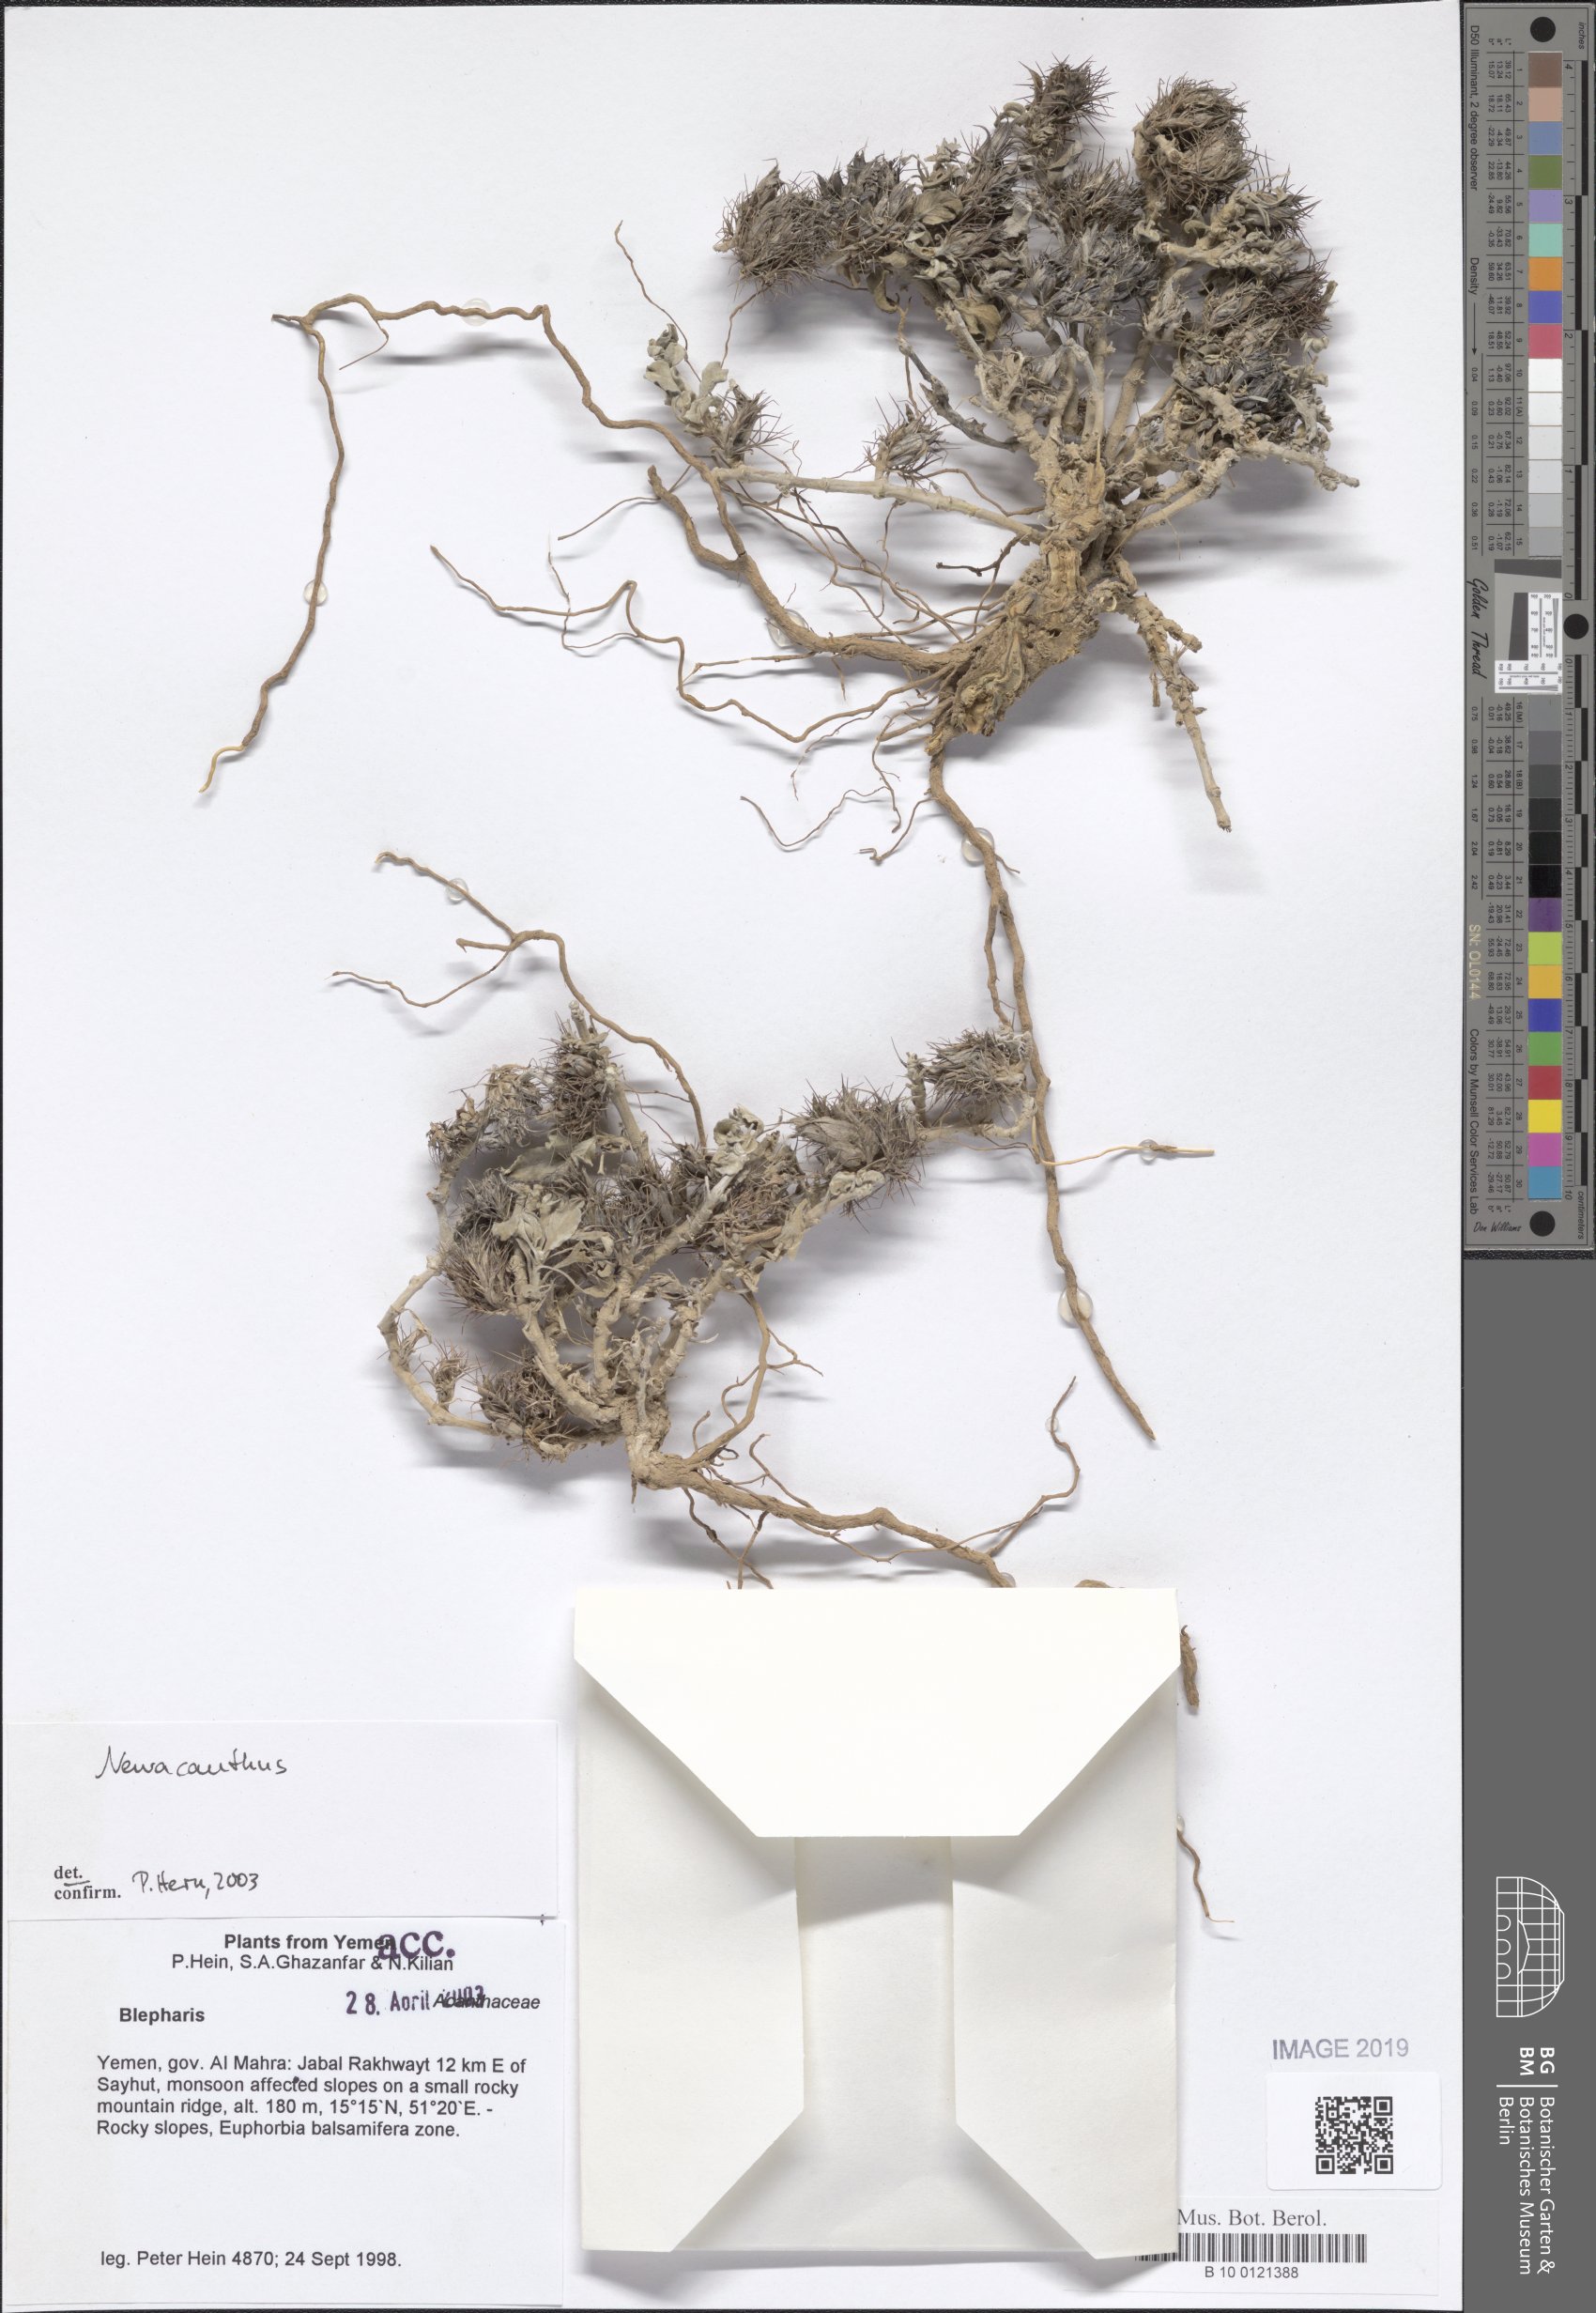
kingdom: Plantae
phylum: Tracheophyta
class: Magnoliopsida
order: Lamiales
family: Acanthaceae
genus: Neuracanthus
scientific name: Neuracanthus
